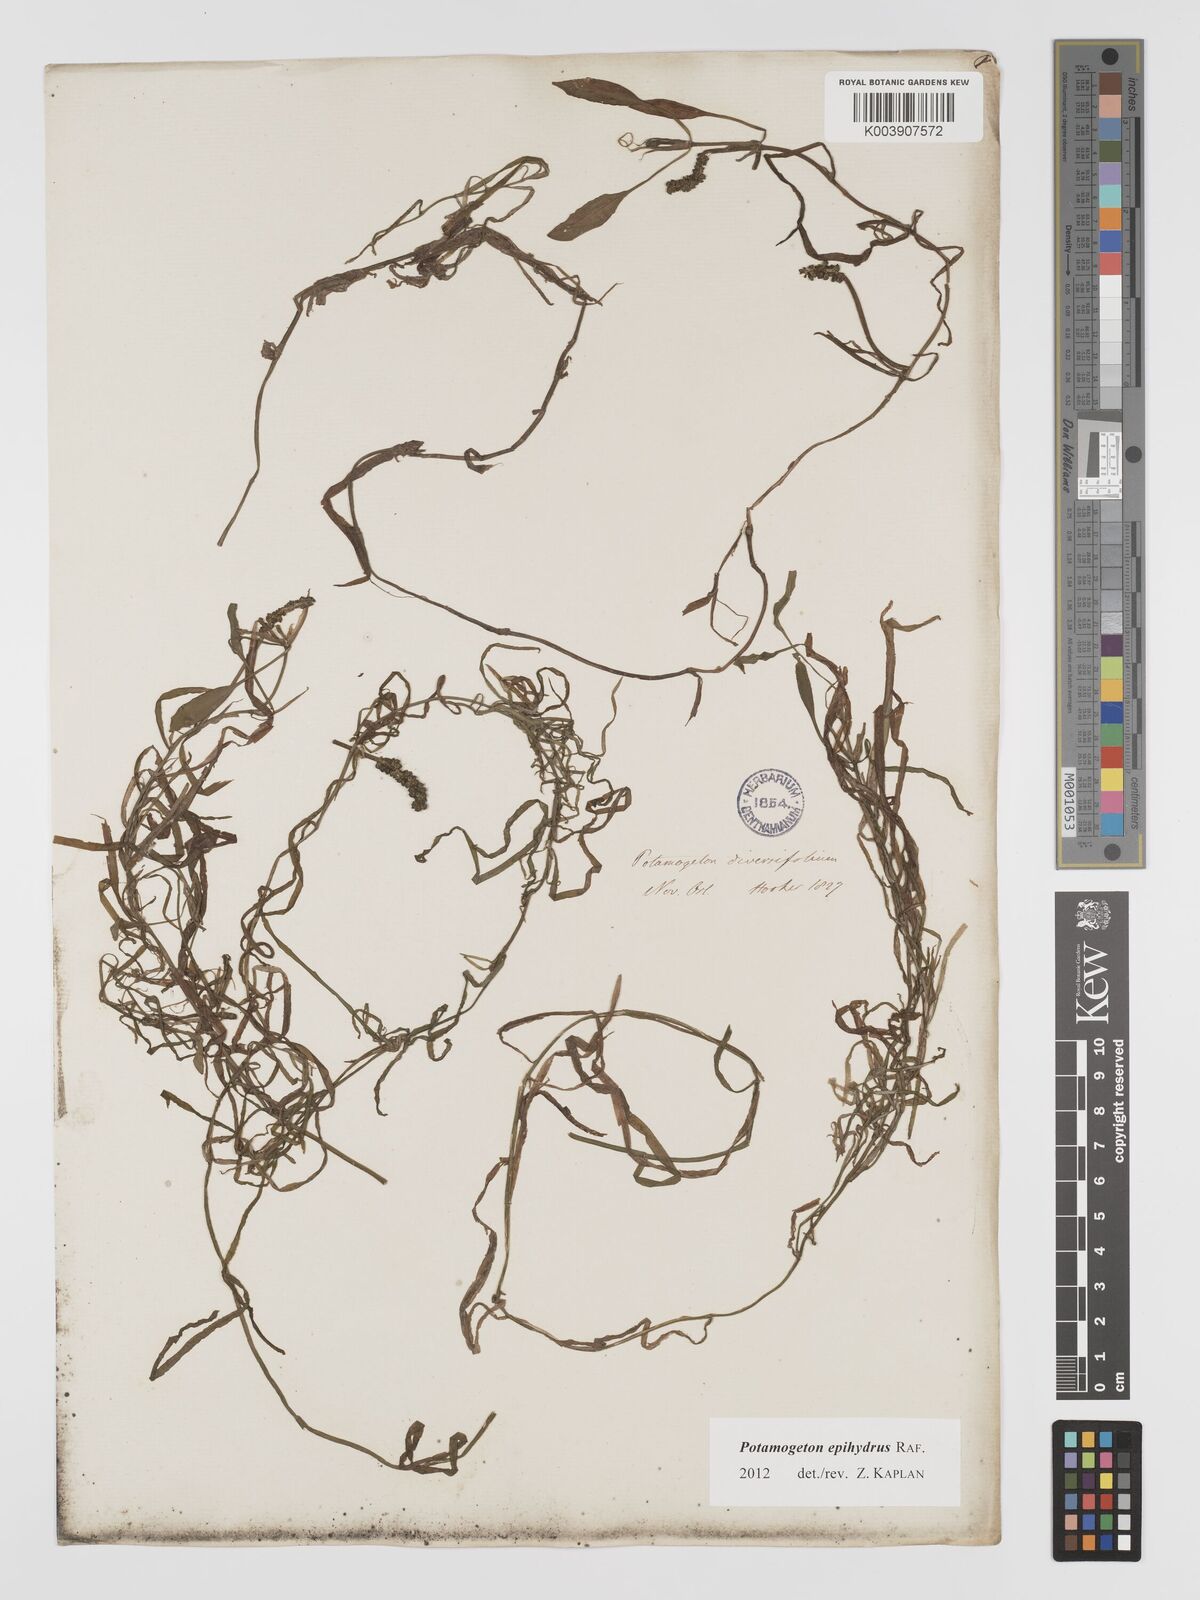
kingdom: Plantae
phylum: Tracheophyta
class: Liliopsida
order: Alismatales
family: Potamogetonaceae
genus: Potamogeton
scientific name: Potamogeton epihydrus
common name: American pondweed
